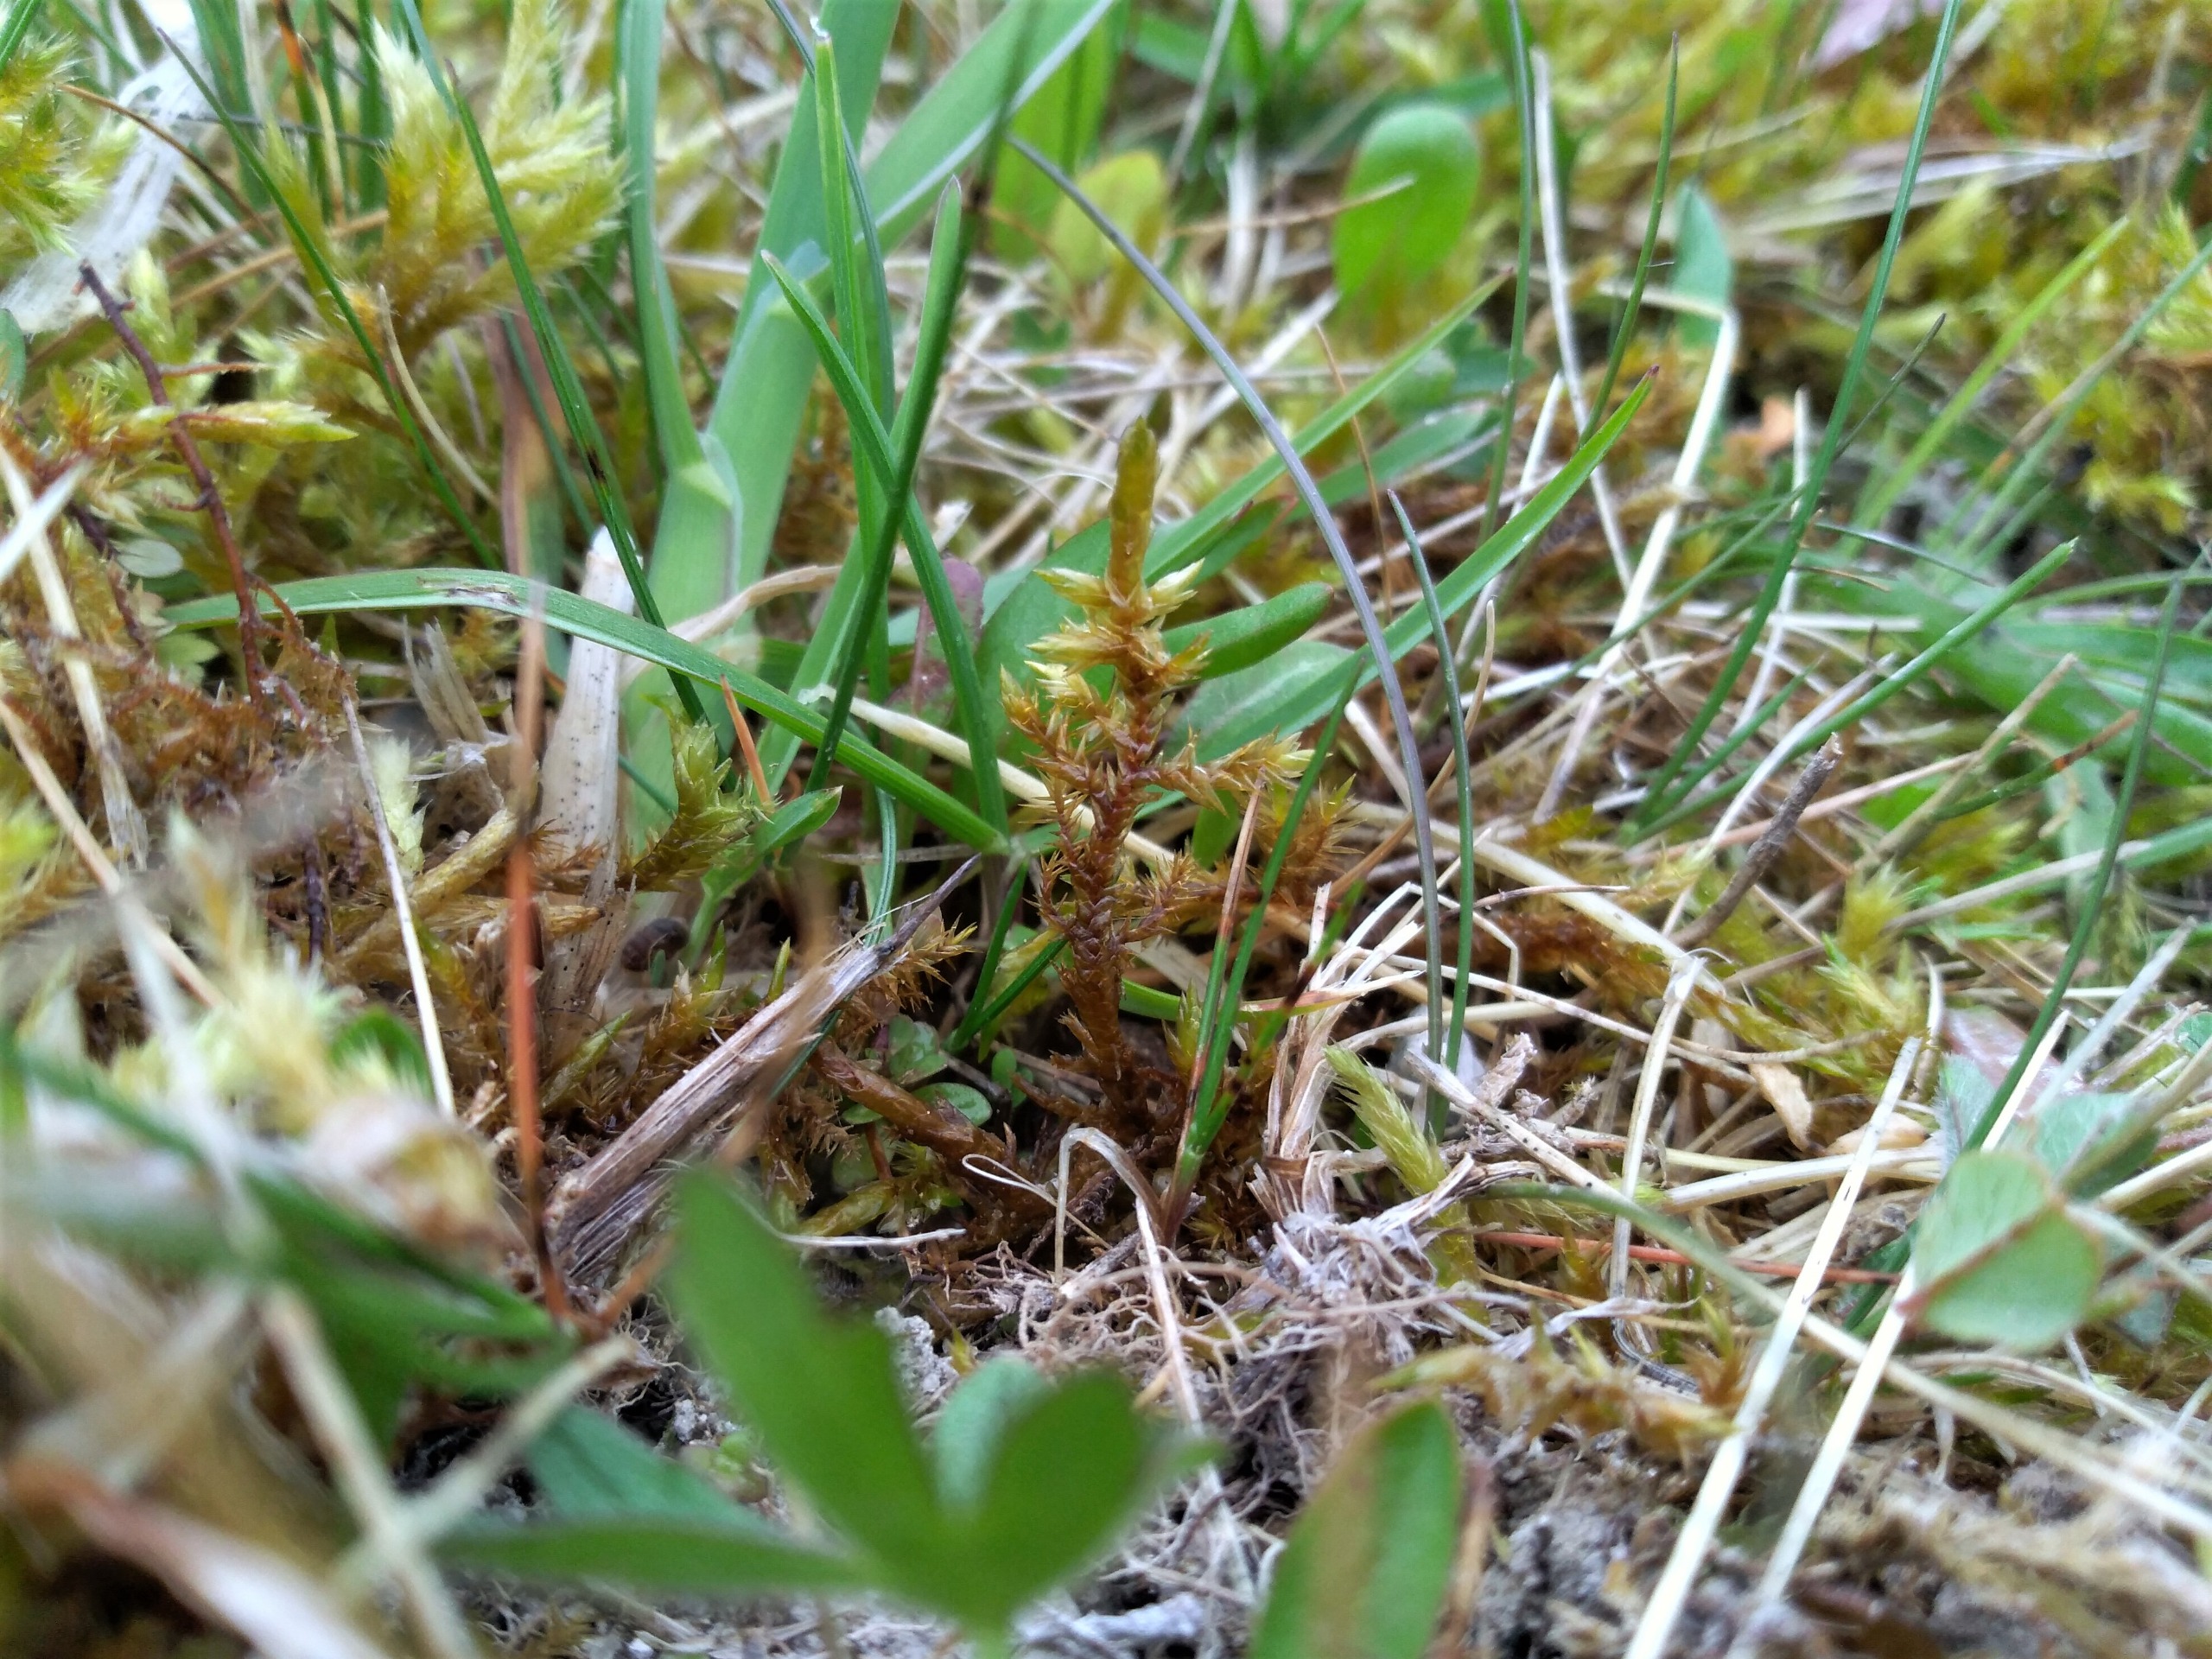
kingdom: Plantae
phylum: Bryophyta
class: Bryopsida
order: Hypnales
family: Pylaisiaceae
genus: Calliergonella
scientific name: Calliergonella cuspidata
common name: Spids spydmos
